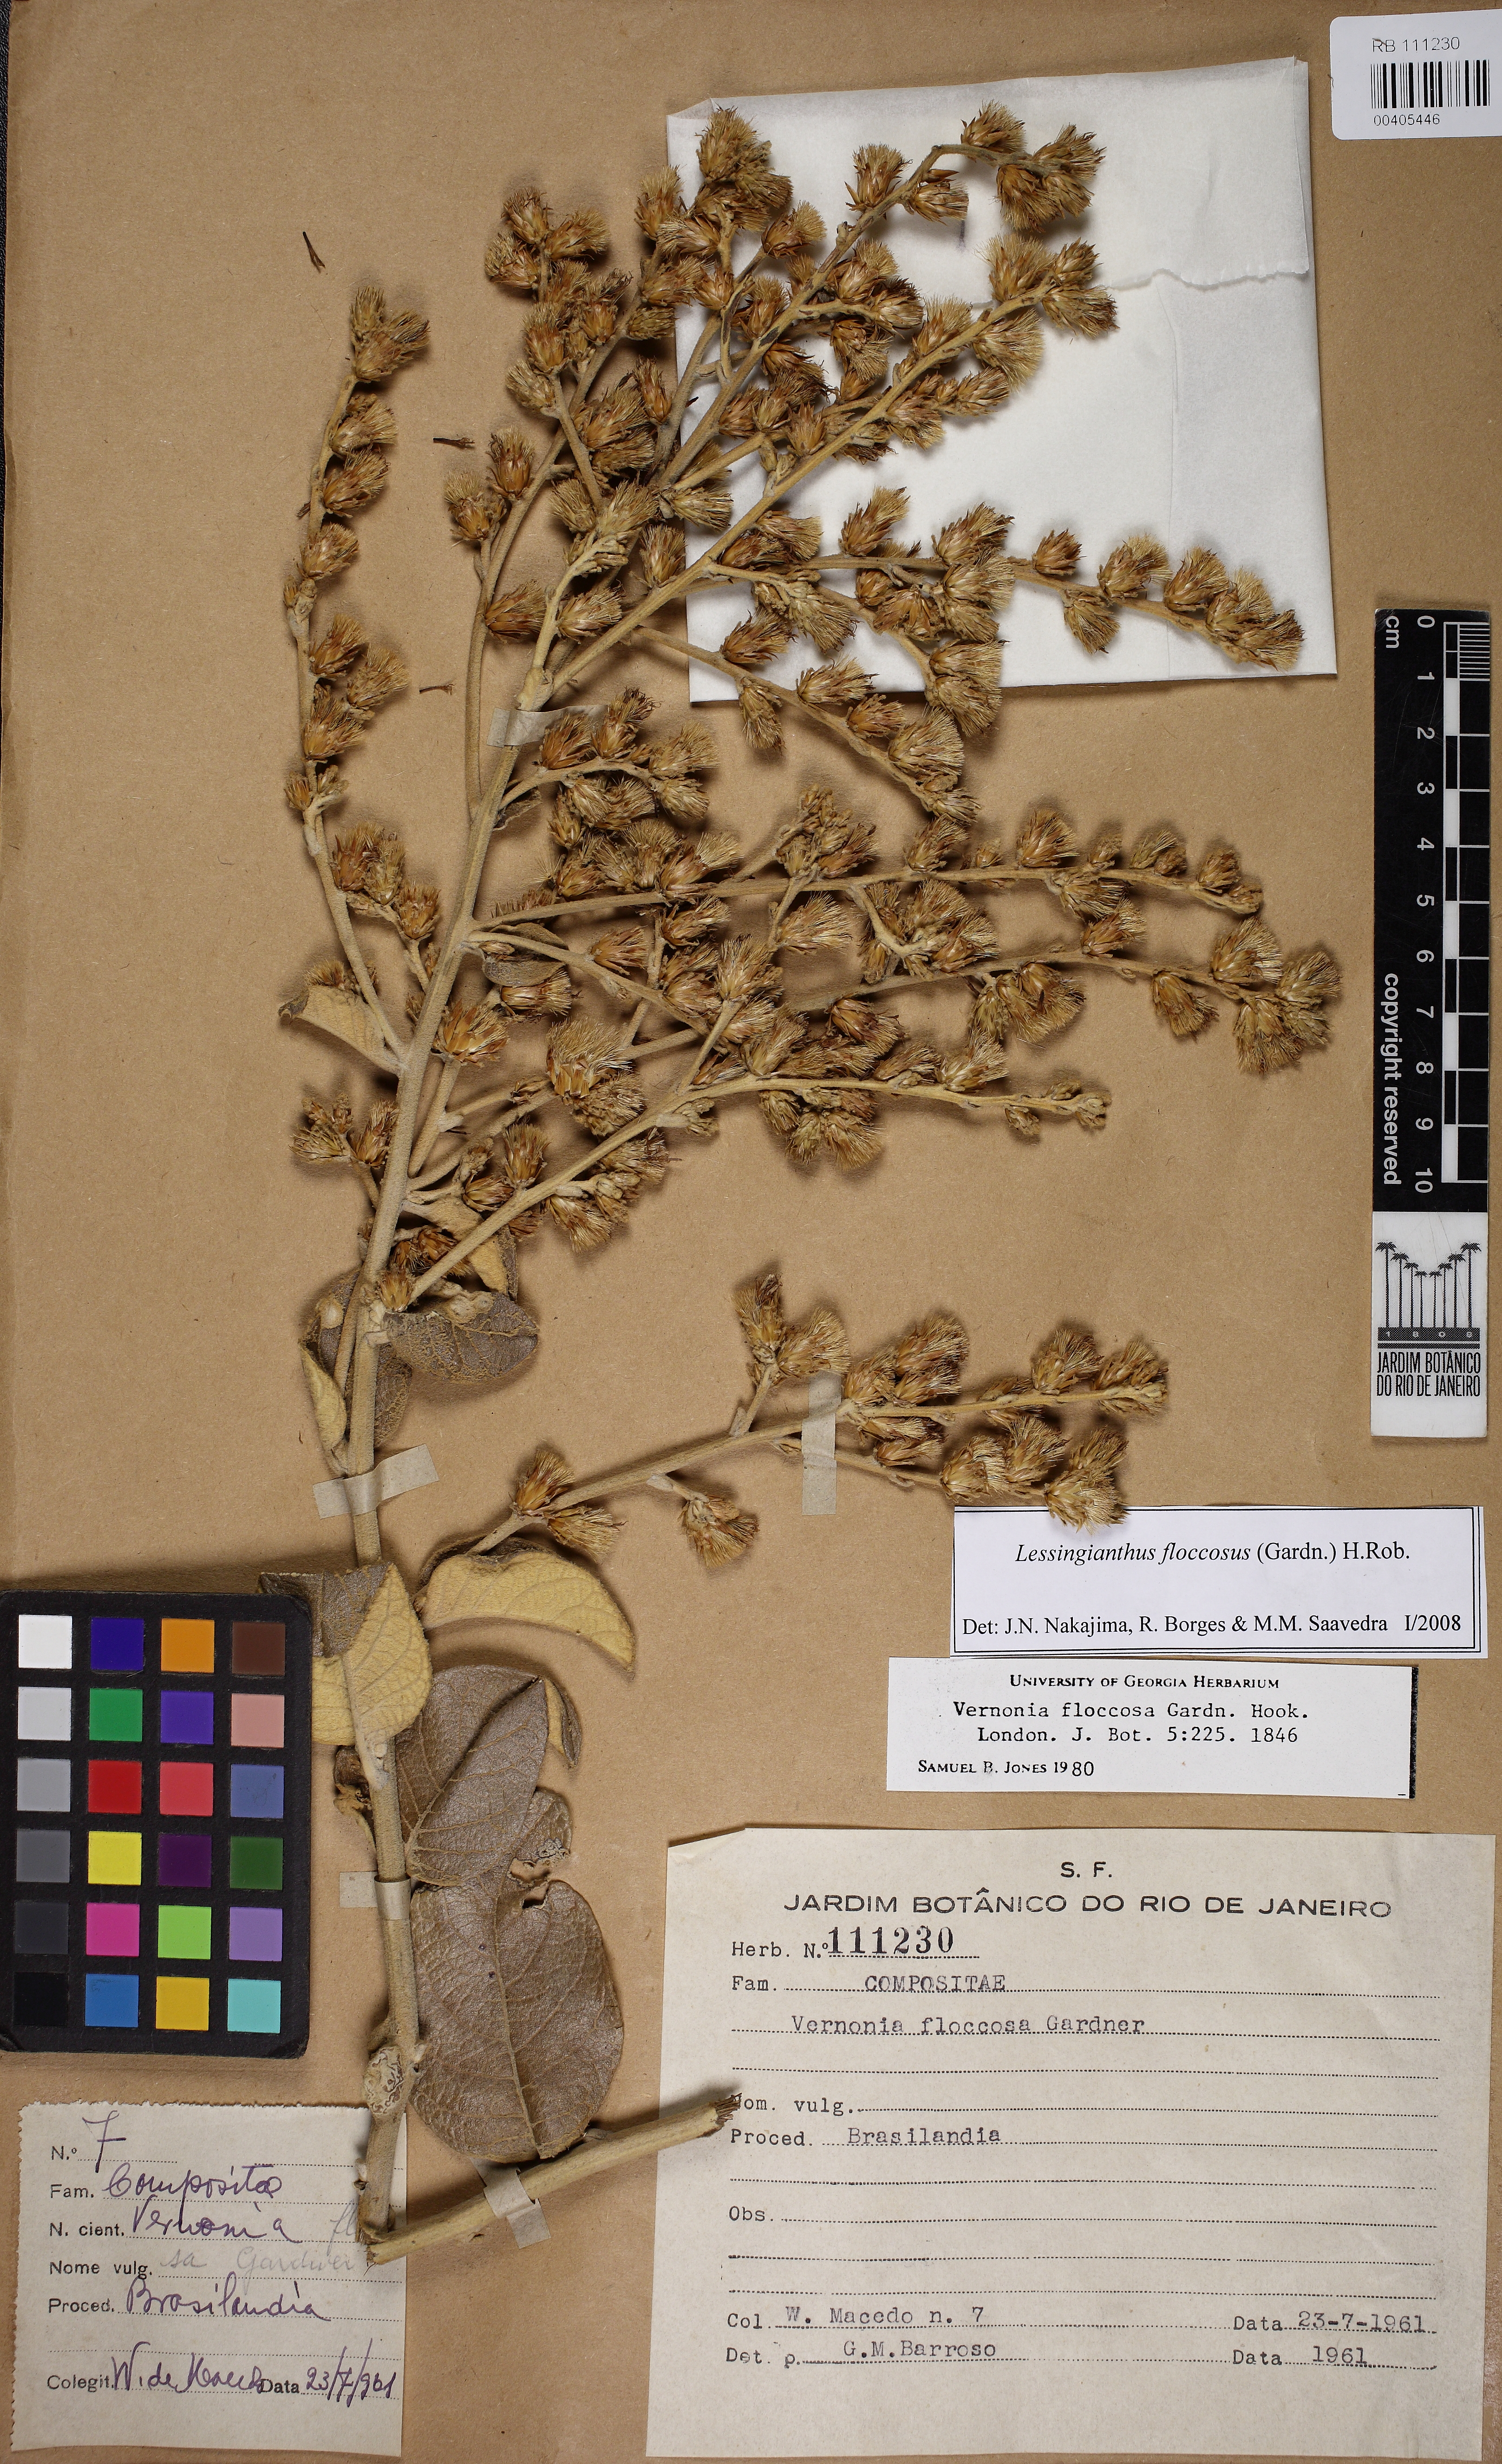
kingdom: Plantae
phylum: Tracheophyta
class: Magnoliopsida
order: Asterales
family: Asteraceae
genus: Lessingianthus
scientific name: Lessingianthus floccosus
